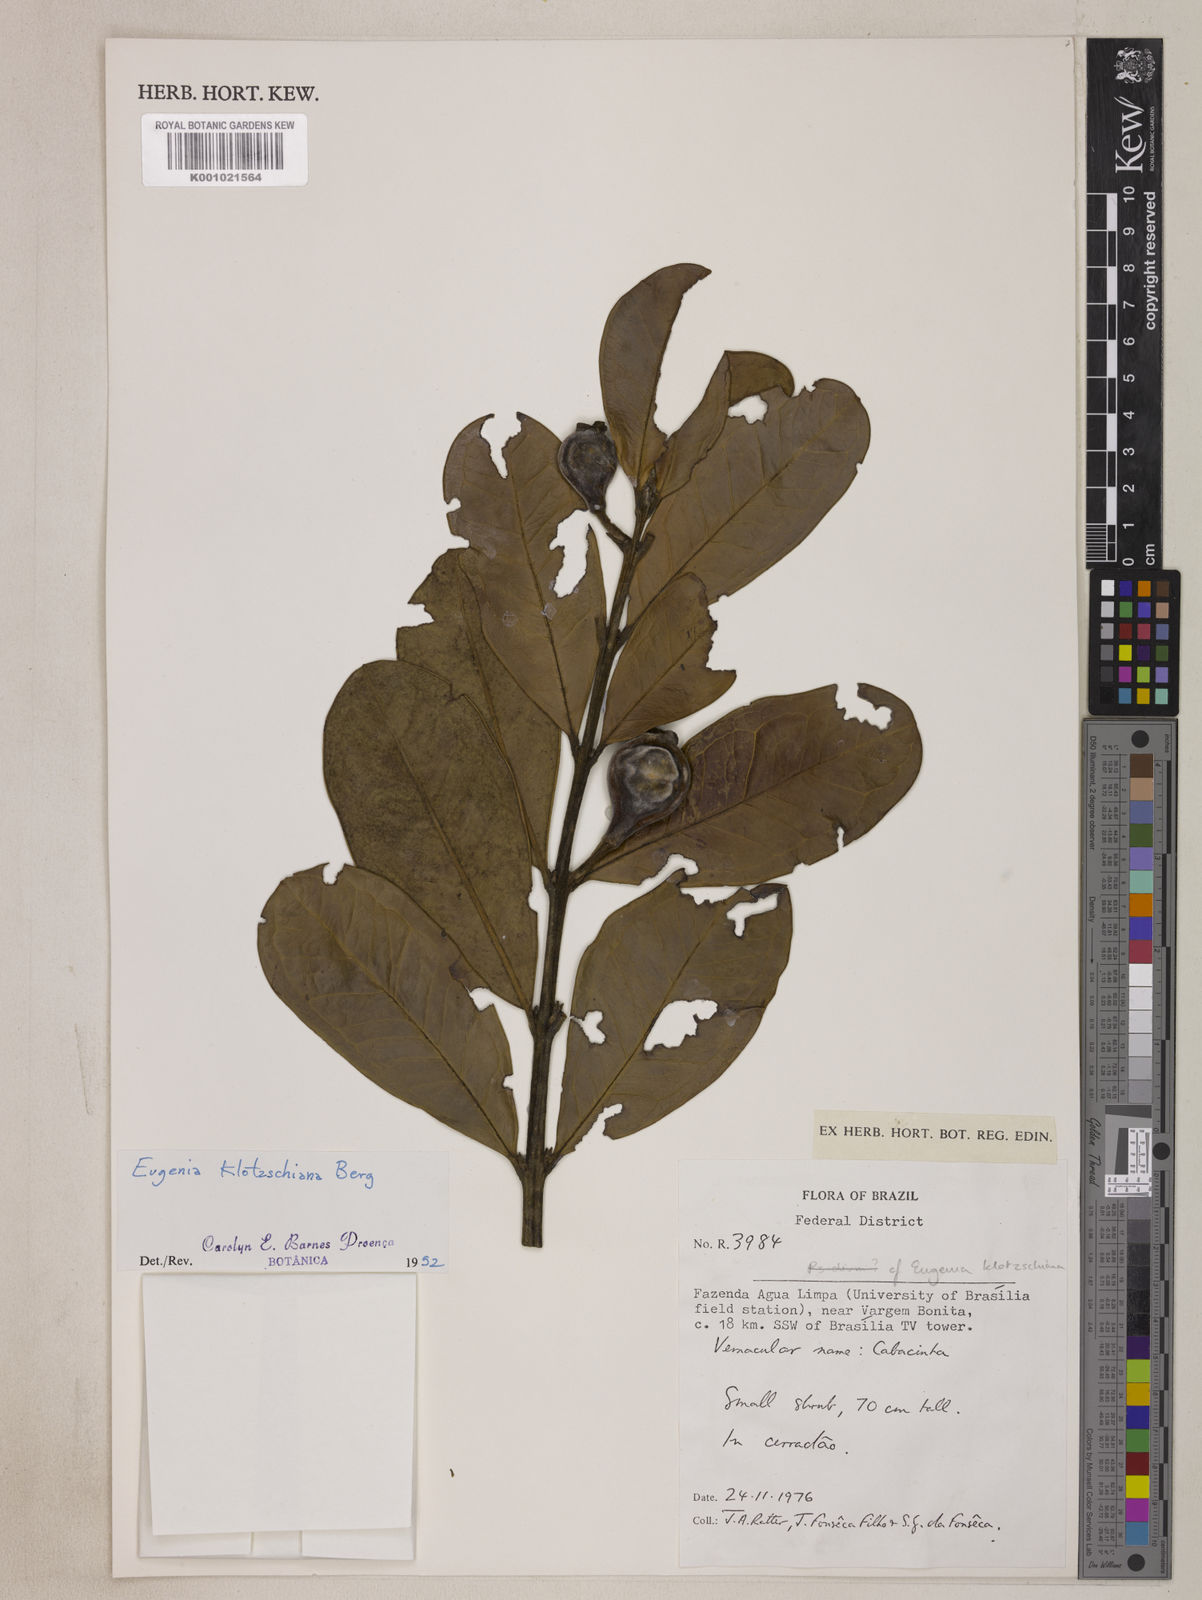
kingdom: Plantae
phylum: Tracheophyta
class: Magnoliopsida
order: Myrtales
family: Myrtaceae
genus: Eugenia
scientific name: Eugenia klotzschiana
